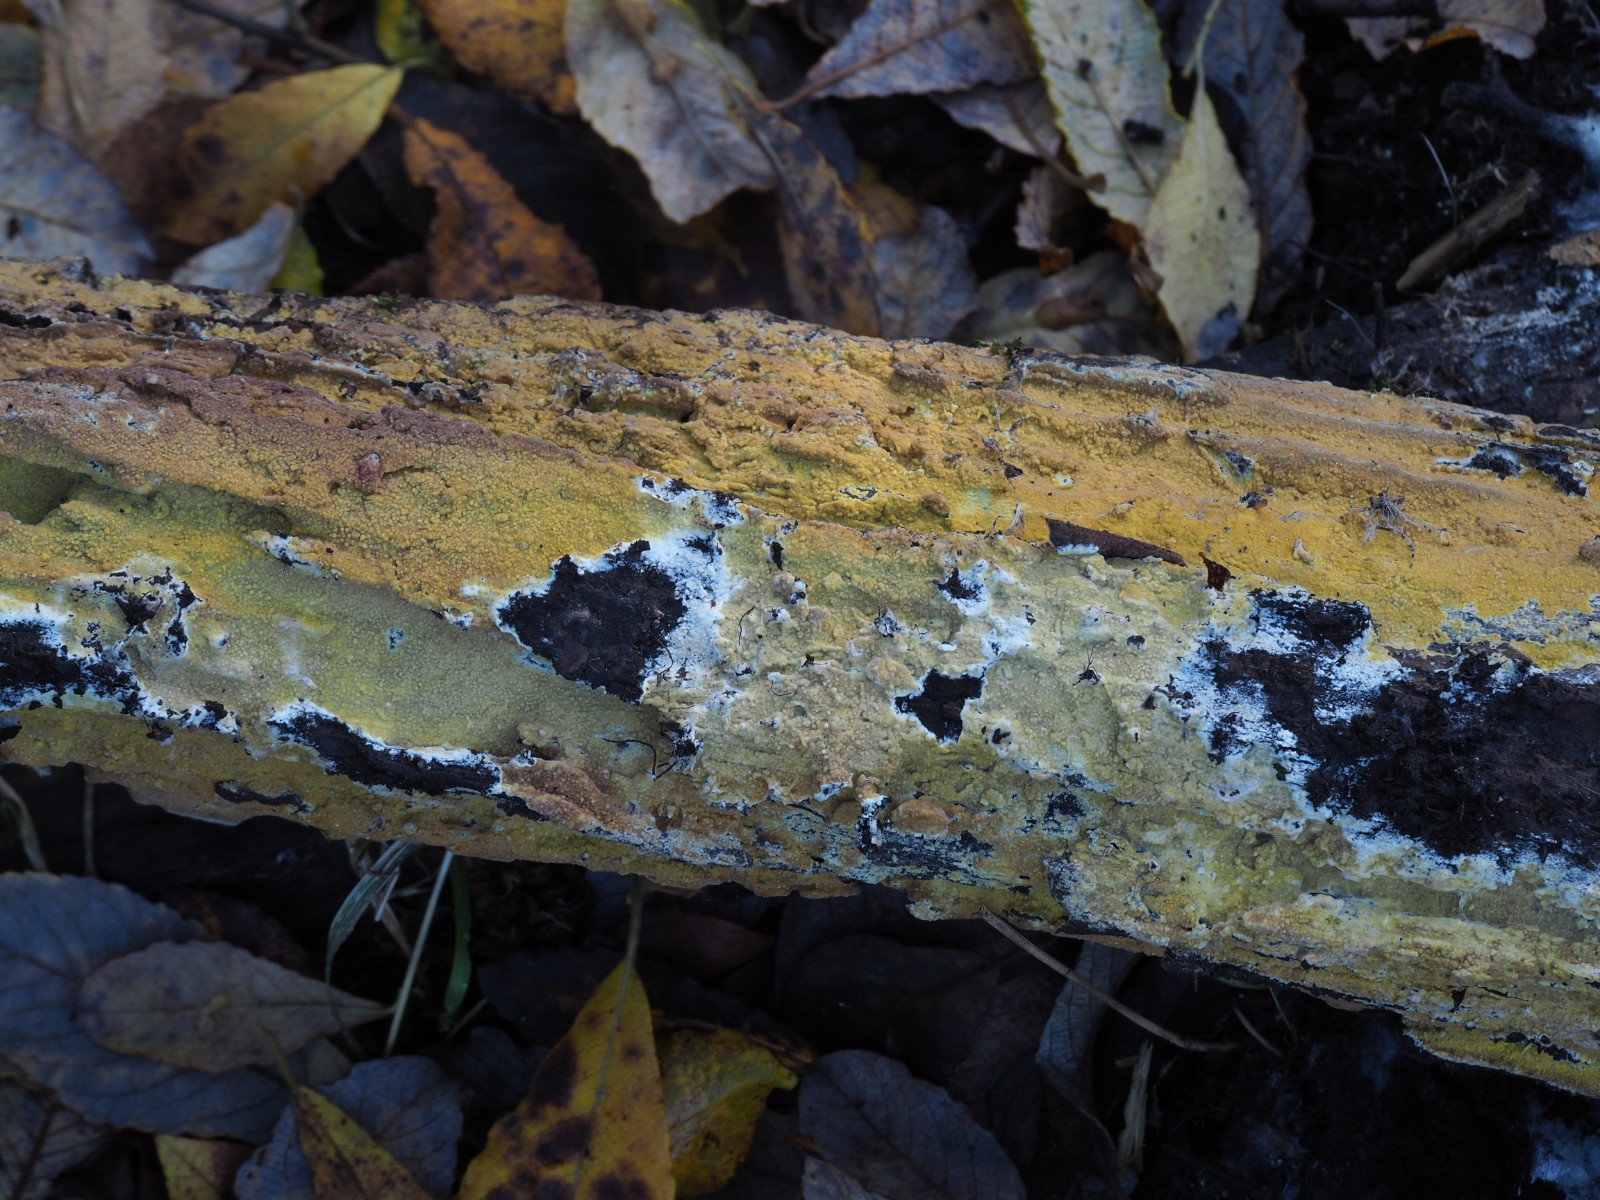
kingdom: Fungi
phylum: Basidiomycota
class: Agaricomycetes
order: Polyporales
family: Meruliaceae
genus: Phlebiodontia
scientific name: Phlebiodontia subochracea
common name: svovl-åresvamp
